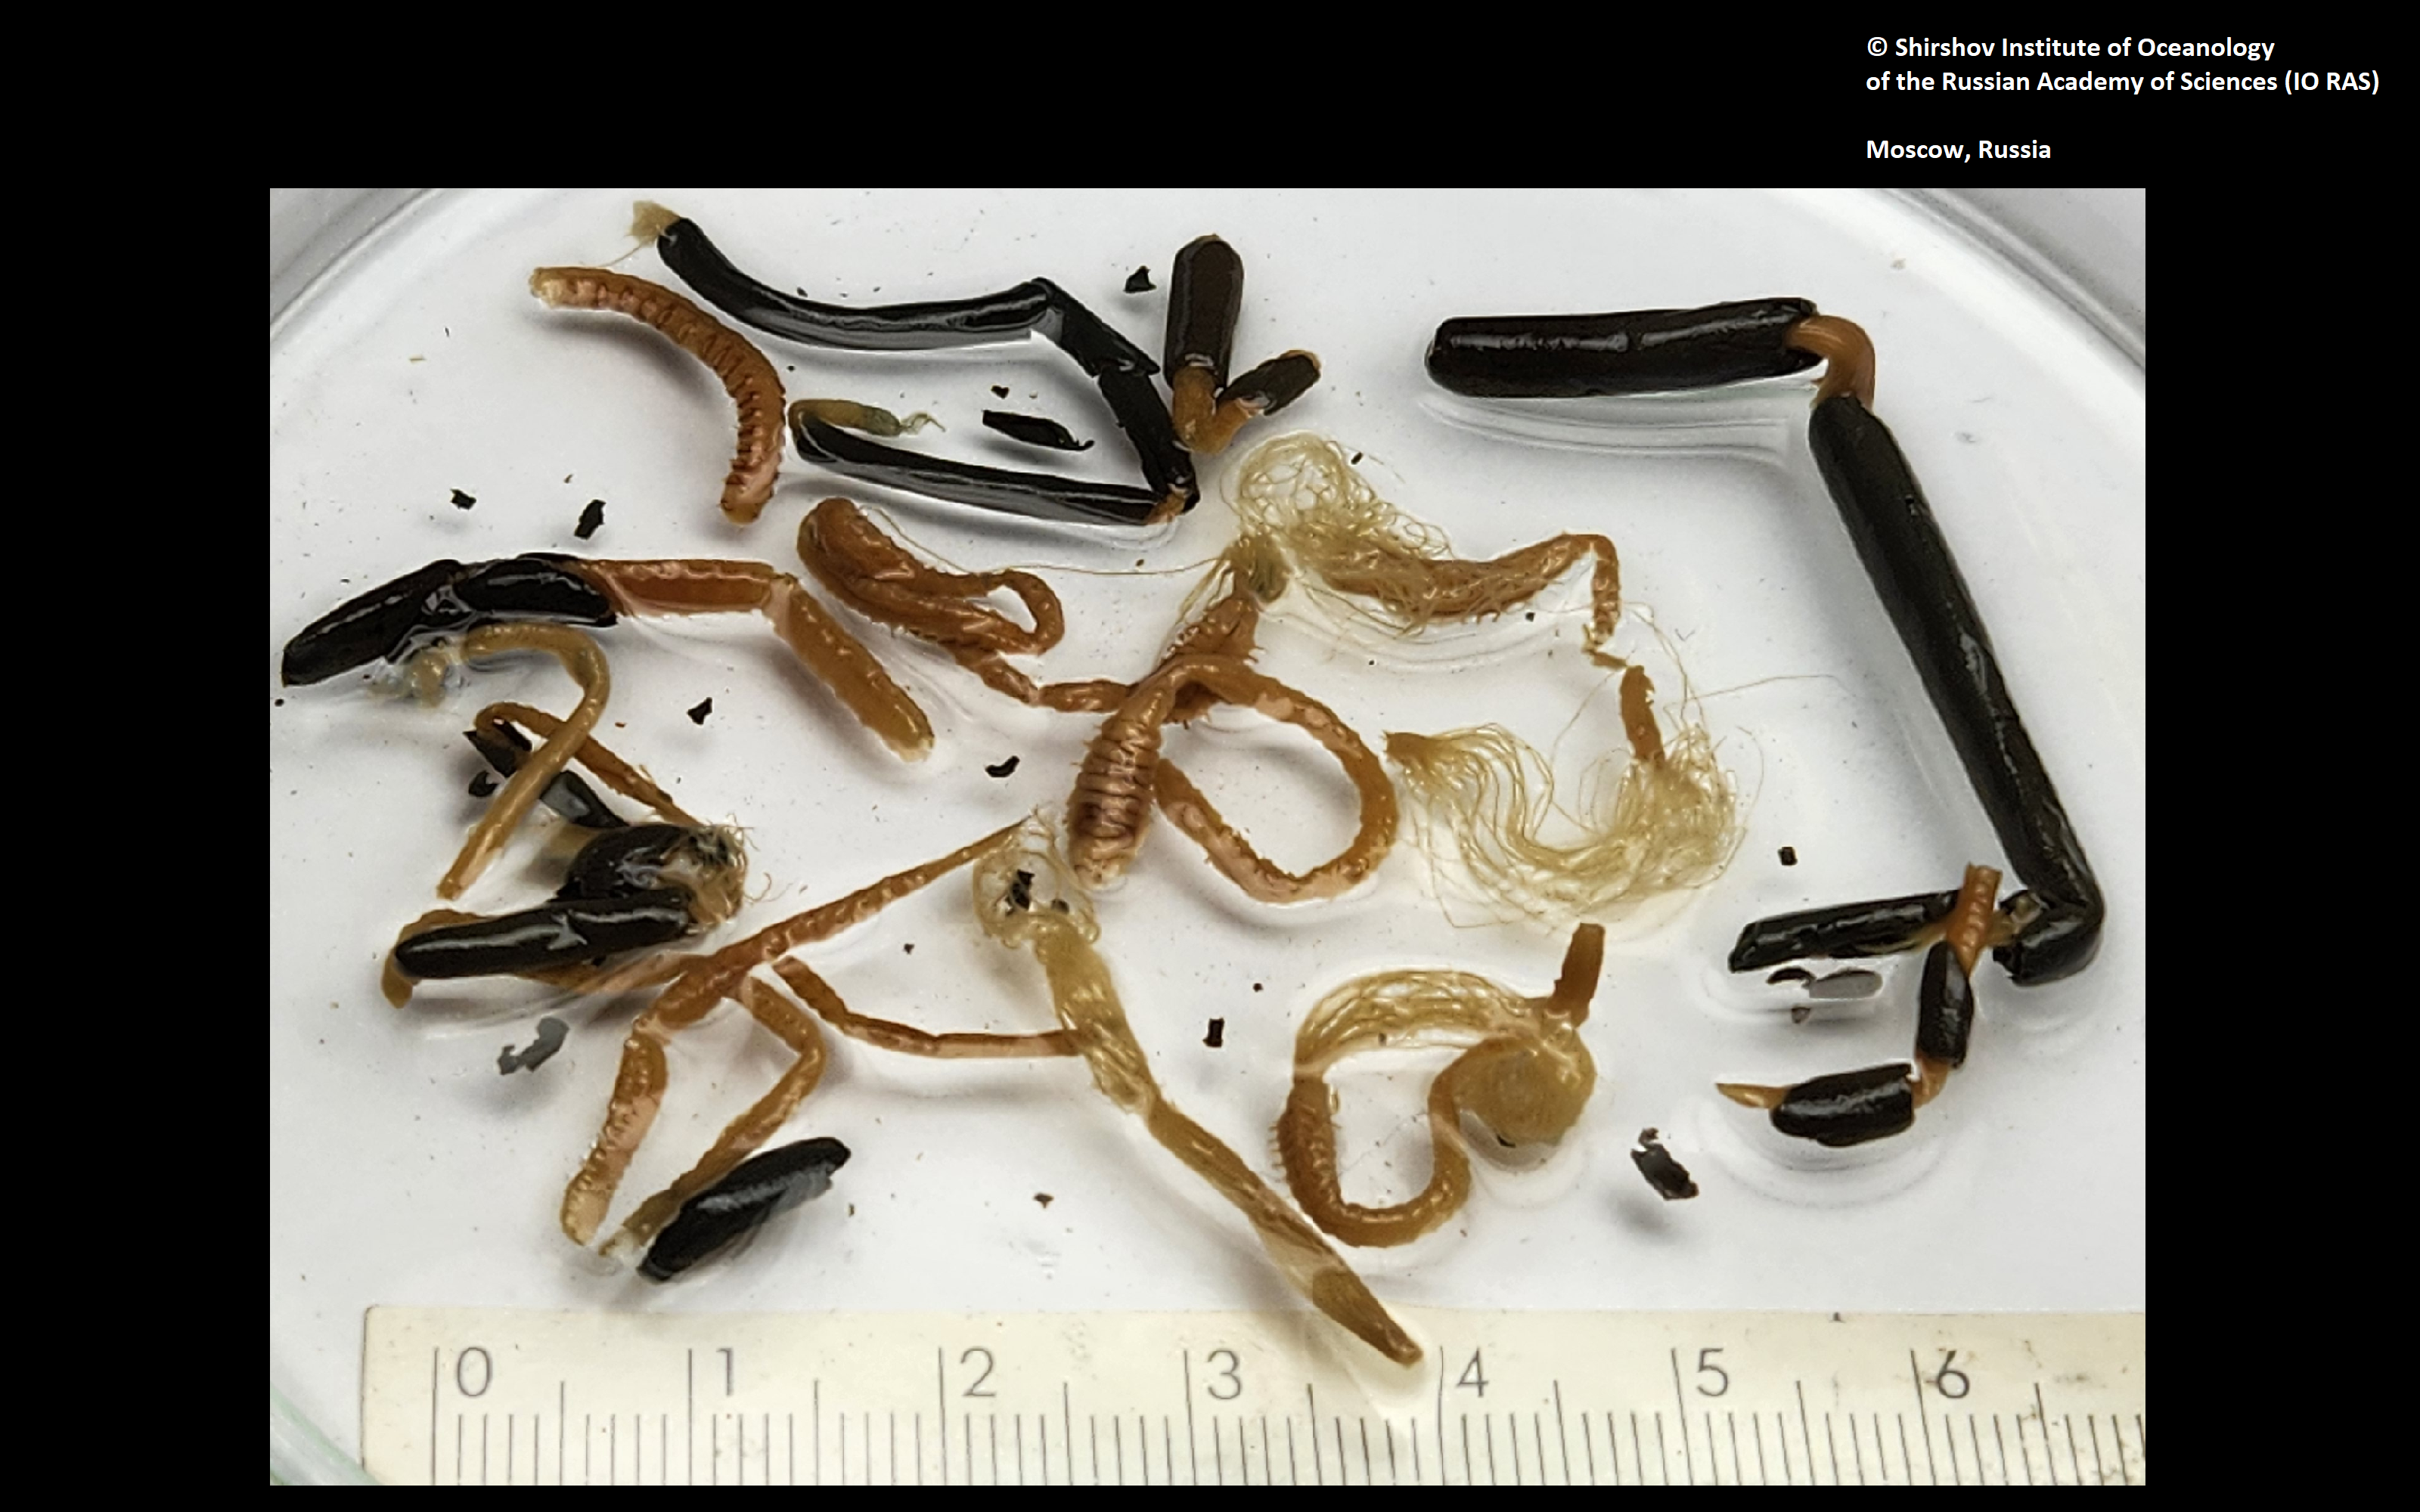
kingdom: Animalia
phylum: Annelida
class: Polychaeta
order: Sabellida
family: Sabellidae
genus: Jasmineira
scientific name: Jasmineira filatovae
